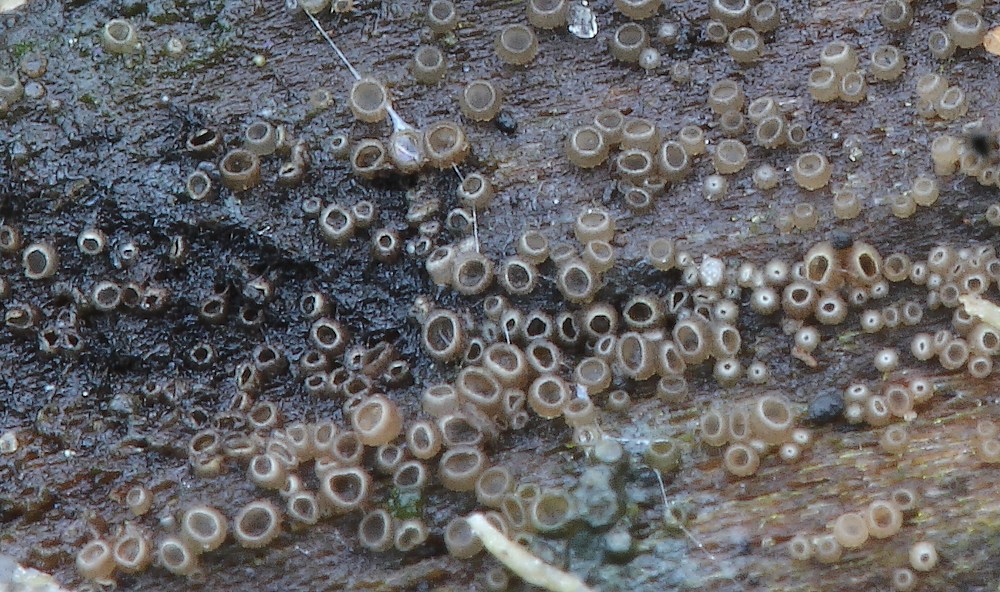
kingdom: Fungi
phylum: Ascomycota
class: Leotiomycetes
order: Helotiales
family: Hyaloscyphaceae
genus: Protounguicularia
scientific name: Protounguicularia transiens
